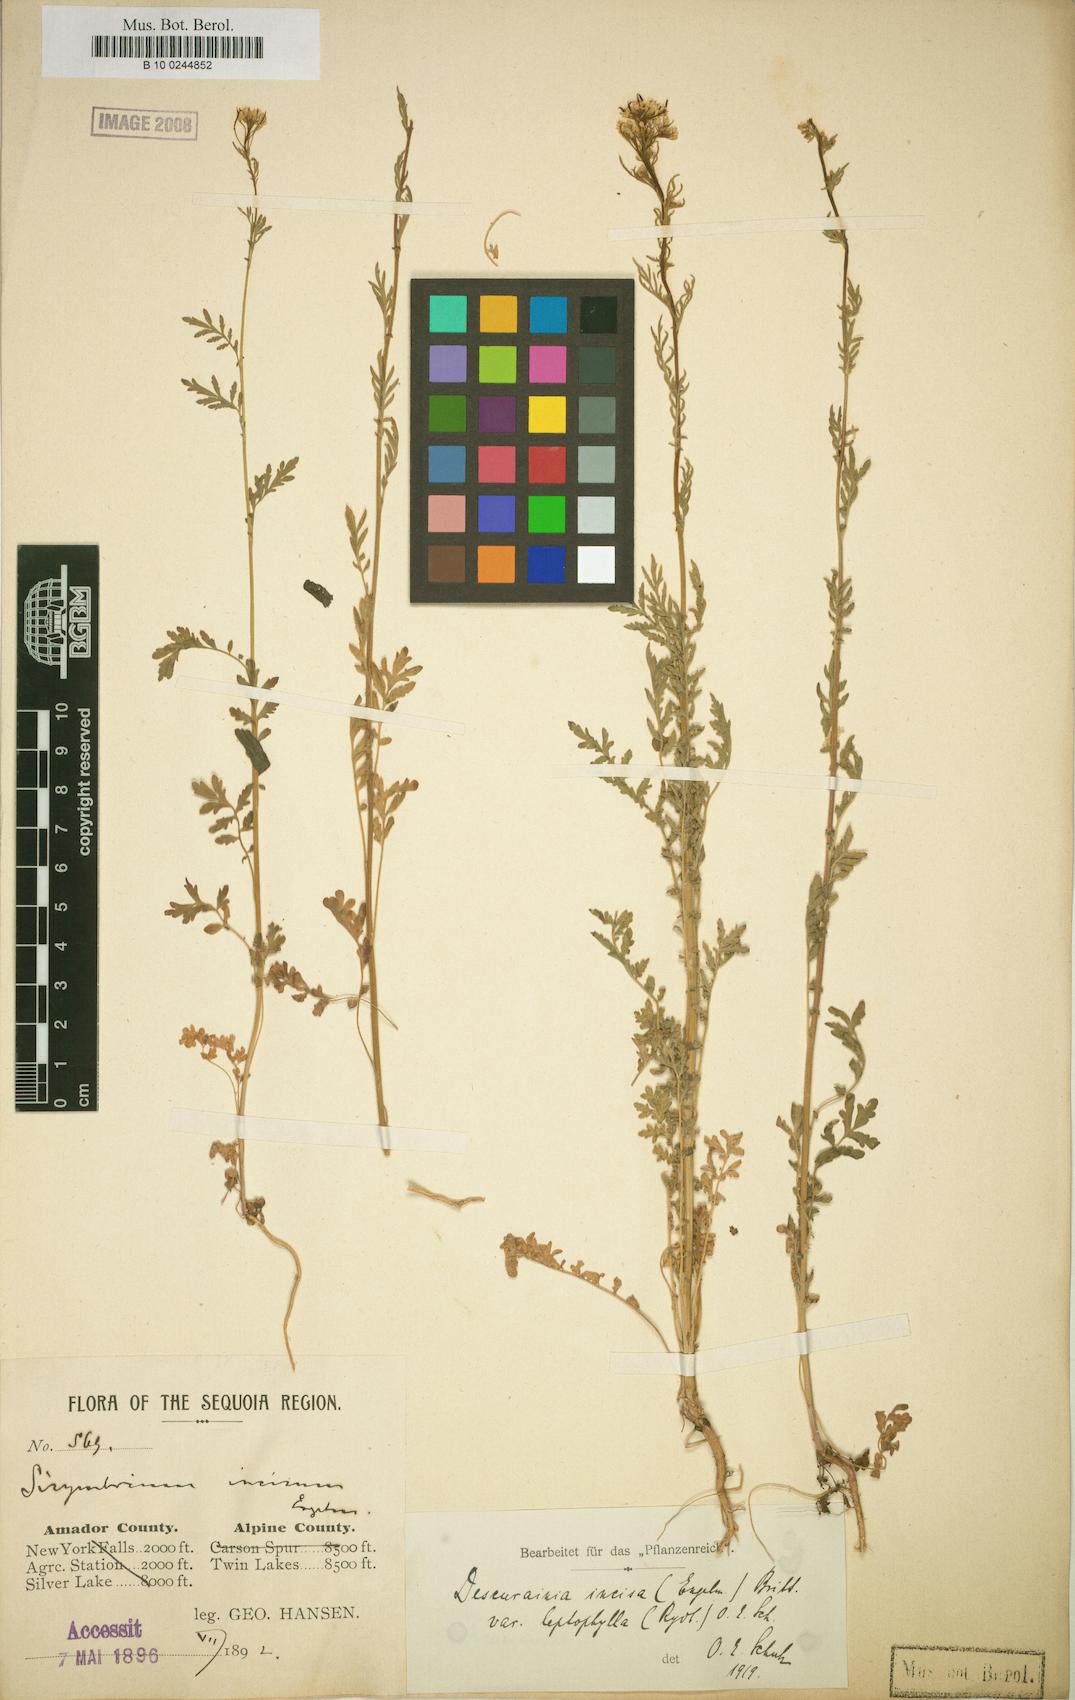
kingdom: Plantae
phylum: Tracheophyta
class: Magnoliopsida
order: Brassicales
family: Brassicaceae
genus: Descurainia
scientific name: Descurainia incisa
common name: Cut-leaved tansy mustard
